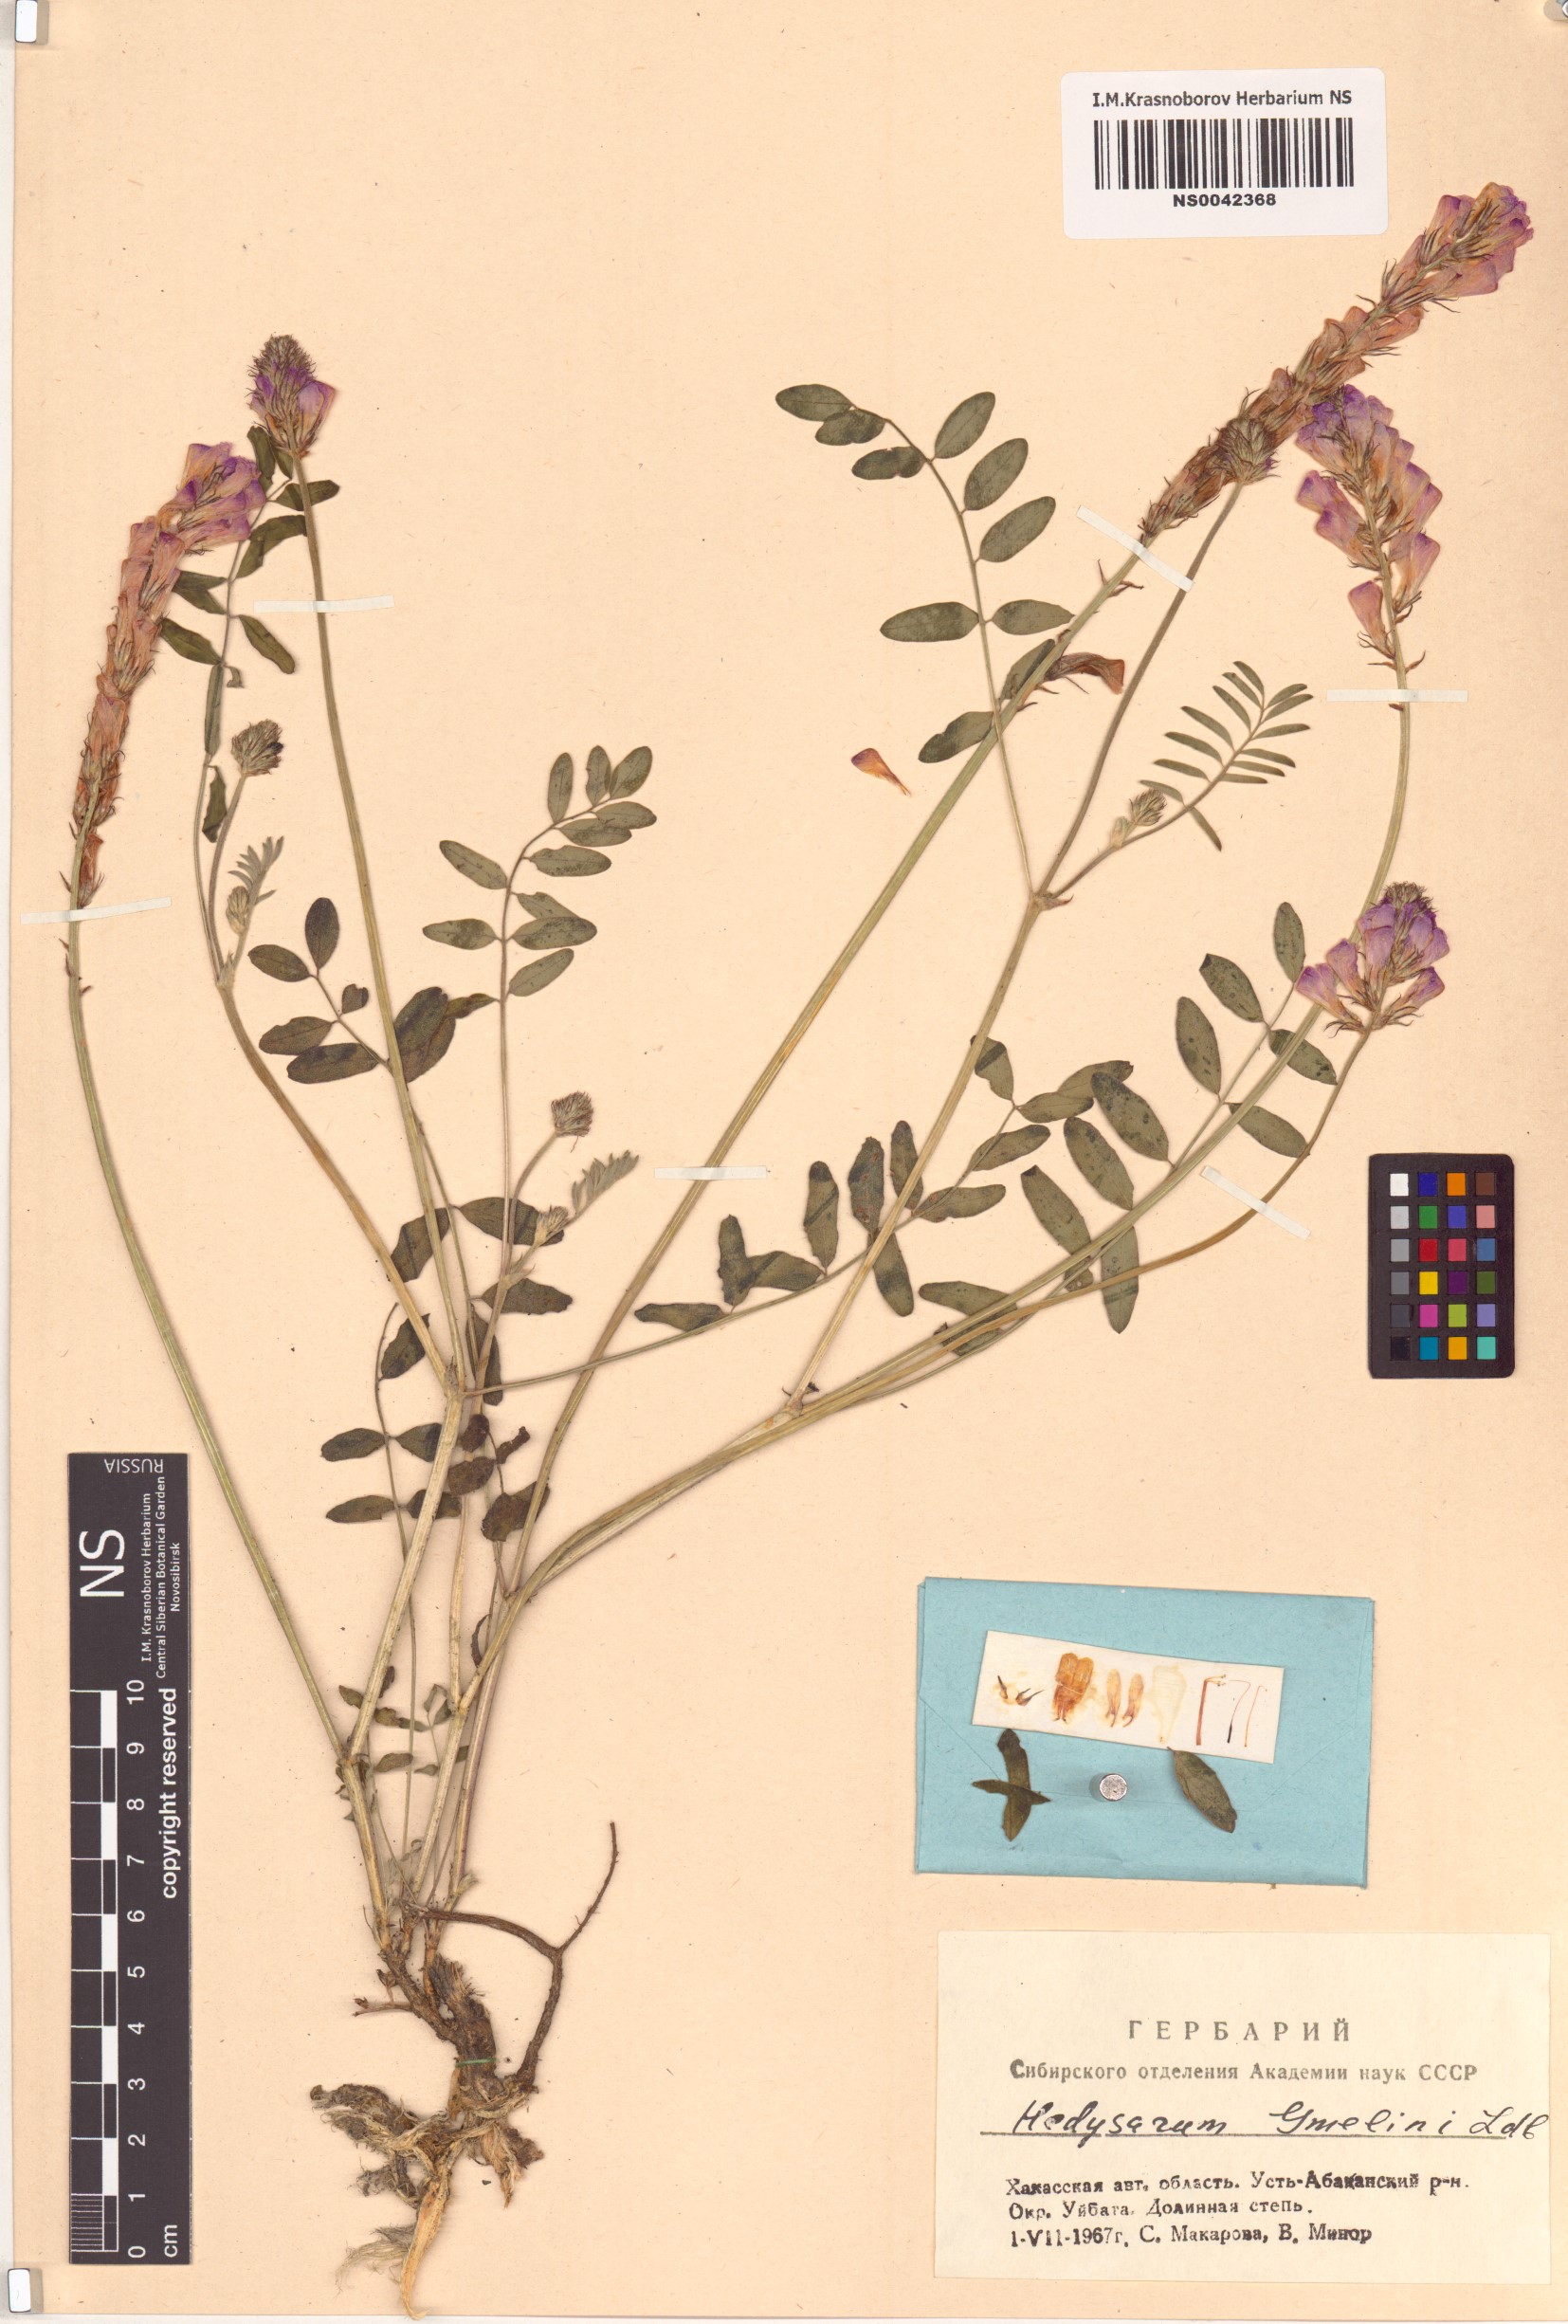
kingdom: Plantae
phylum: Tracheophyta
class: Magnoliopsida
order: Fabales
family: Fabaceae
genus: Hedysarum
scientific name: Hedysarum gmelinii
